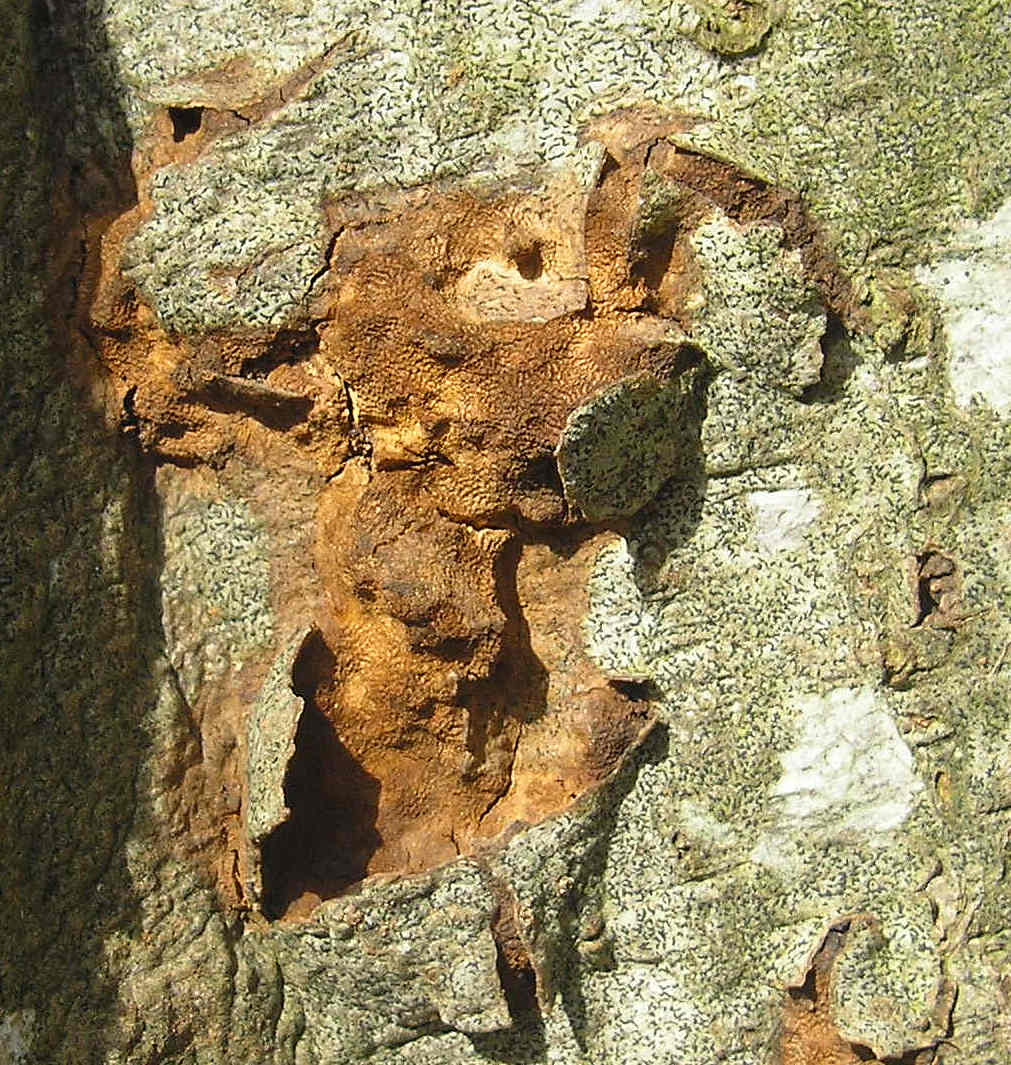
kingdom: Fungi
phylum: Basidiomycota
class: Agaricomycetes
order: Hymenochaetales
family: Hymenochaetaceae
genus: Xanthoporia
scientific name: Xanthoporia radiata
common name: elle-spejlporesvamp
